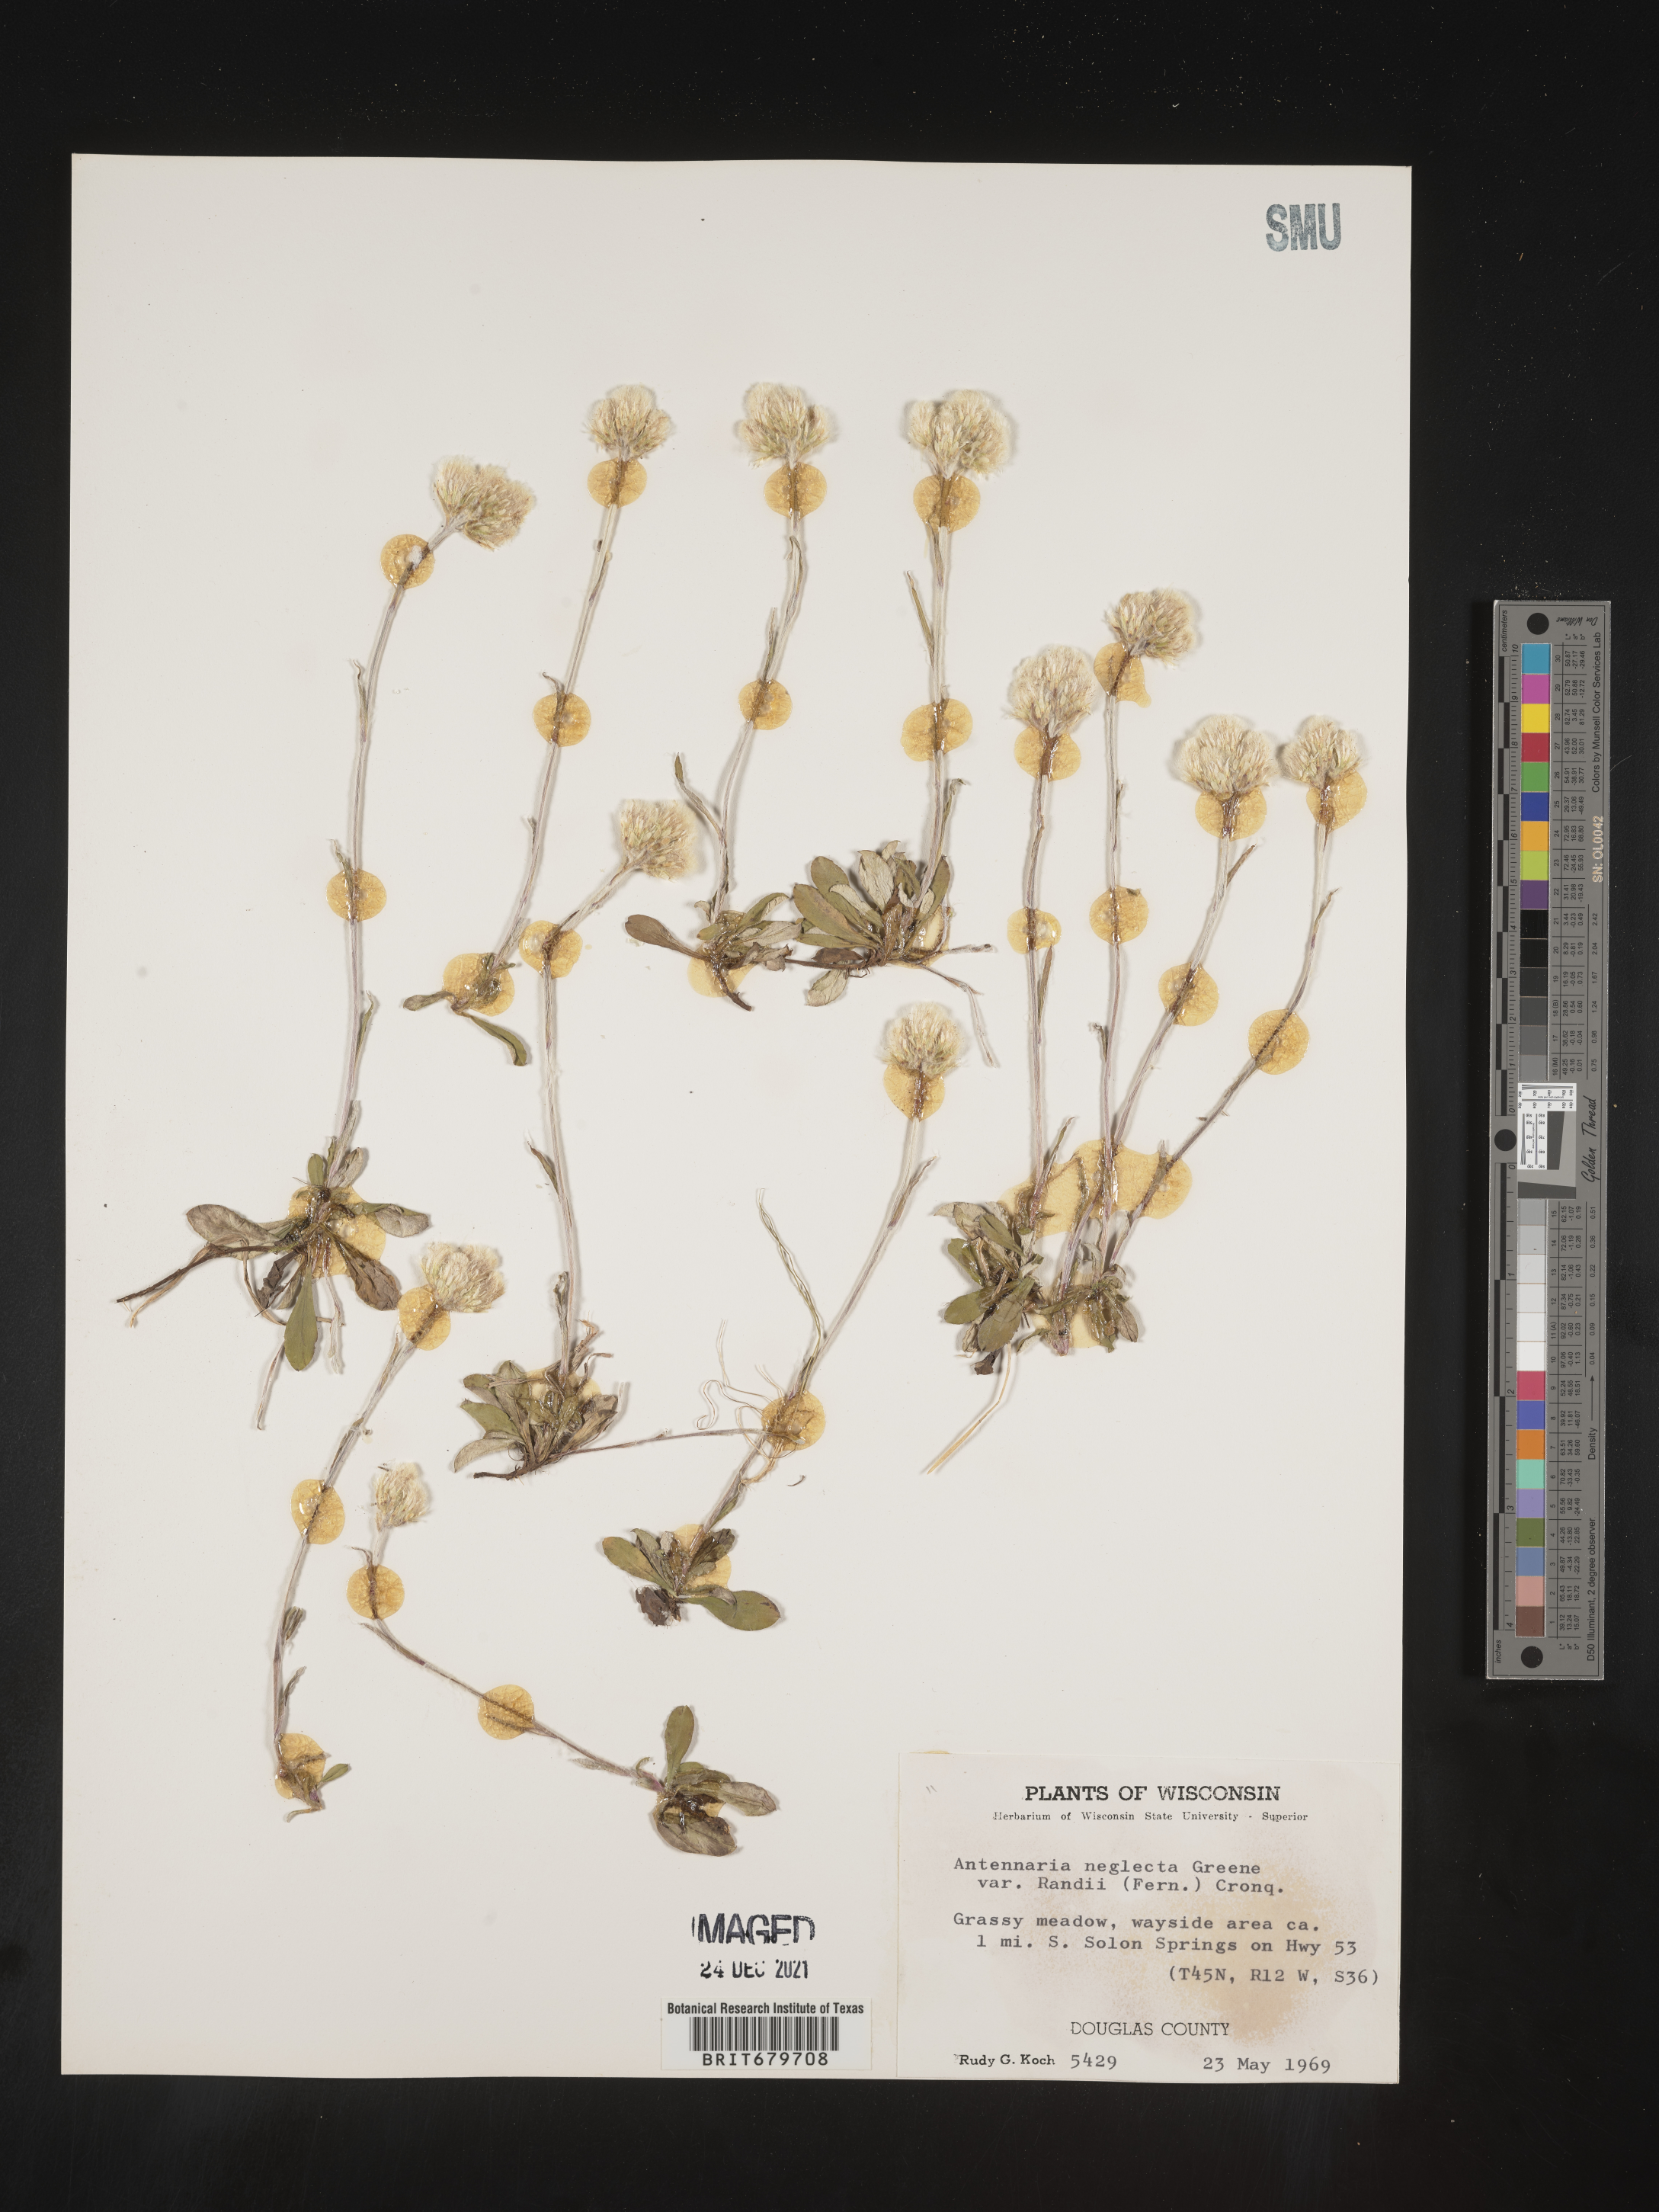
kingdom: Plantae
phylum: Tracheophyta
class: Magnoliopsida
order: Asterales
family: Asteraceae
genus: Antennaria
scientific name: Antennaria neglecta
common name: Field pussytoes
